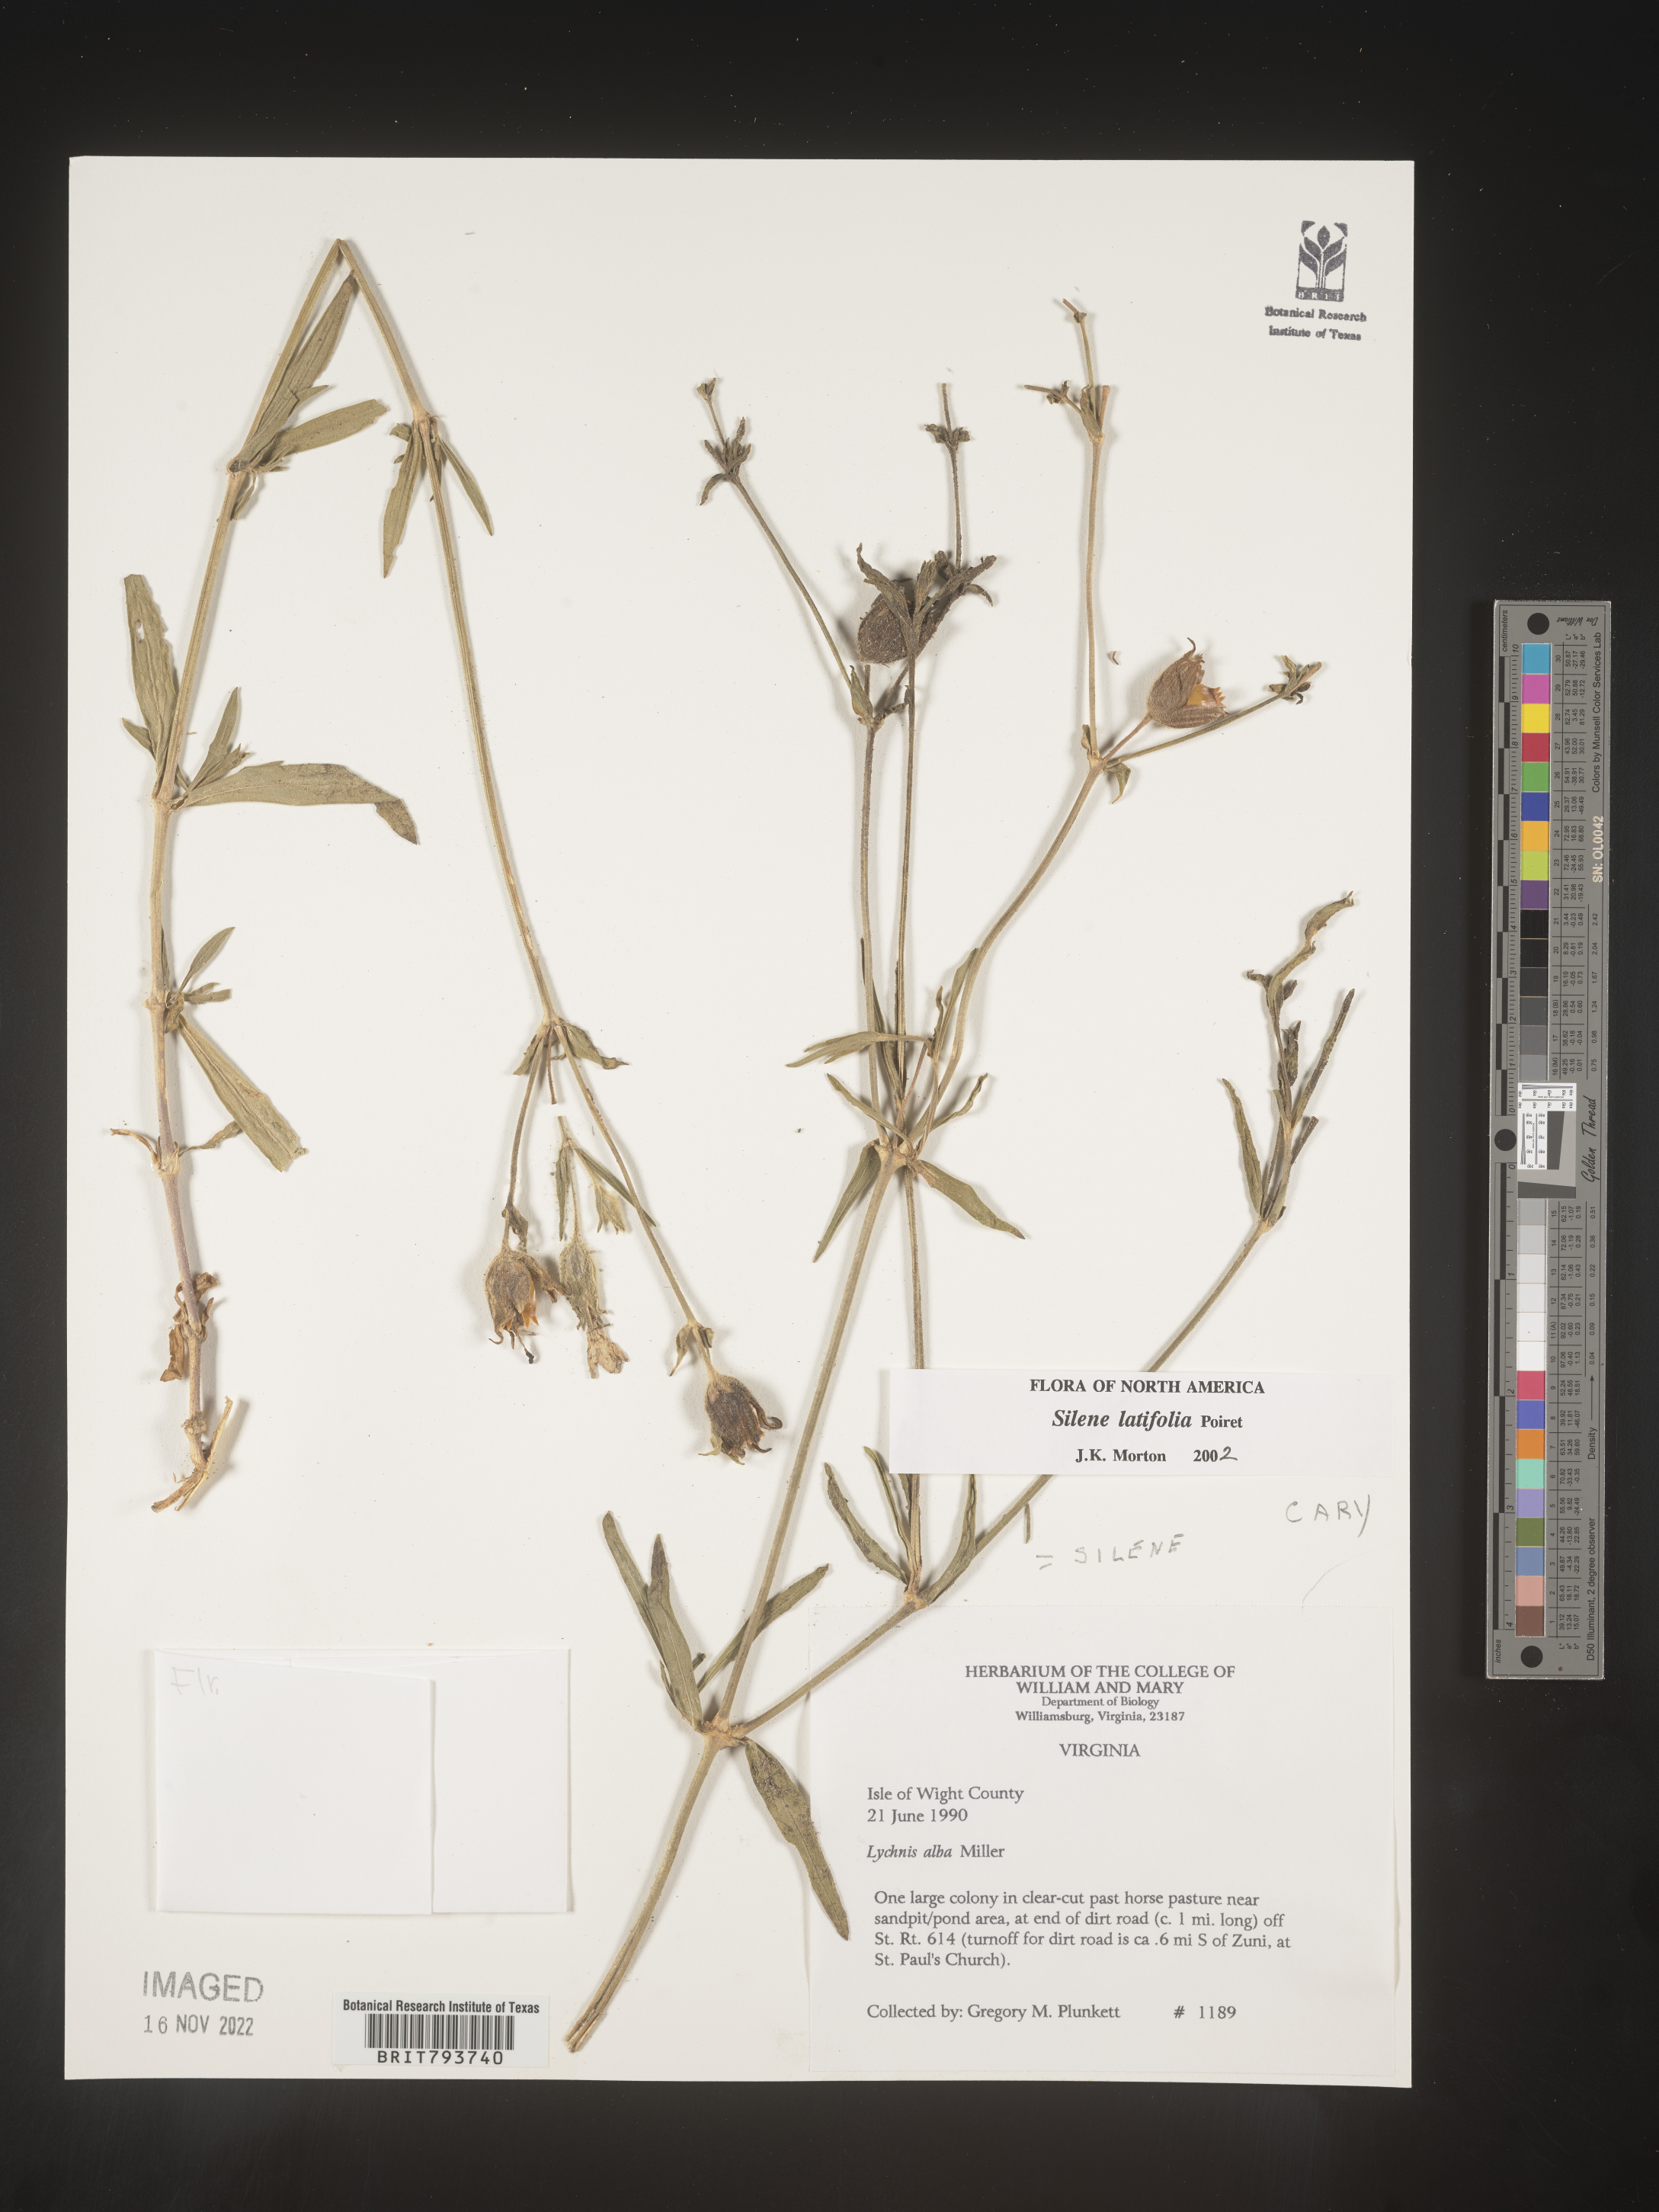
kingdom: Plantae
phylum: Tracheophyta
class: Magnoliopsida
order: Caryophyllales
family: Caryophyllaceae
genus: Silene
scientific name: Silene latifolia
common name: White campion
